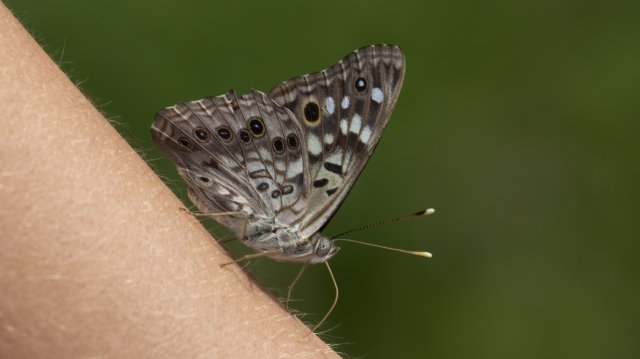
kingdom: Animalia
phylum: Arthropoda
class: Insecta
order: Lepidoptera
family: Nymphalidae
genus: Asterocampa
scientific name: Asterocampa celtis
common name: Hackberry Emperor
